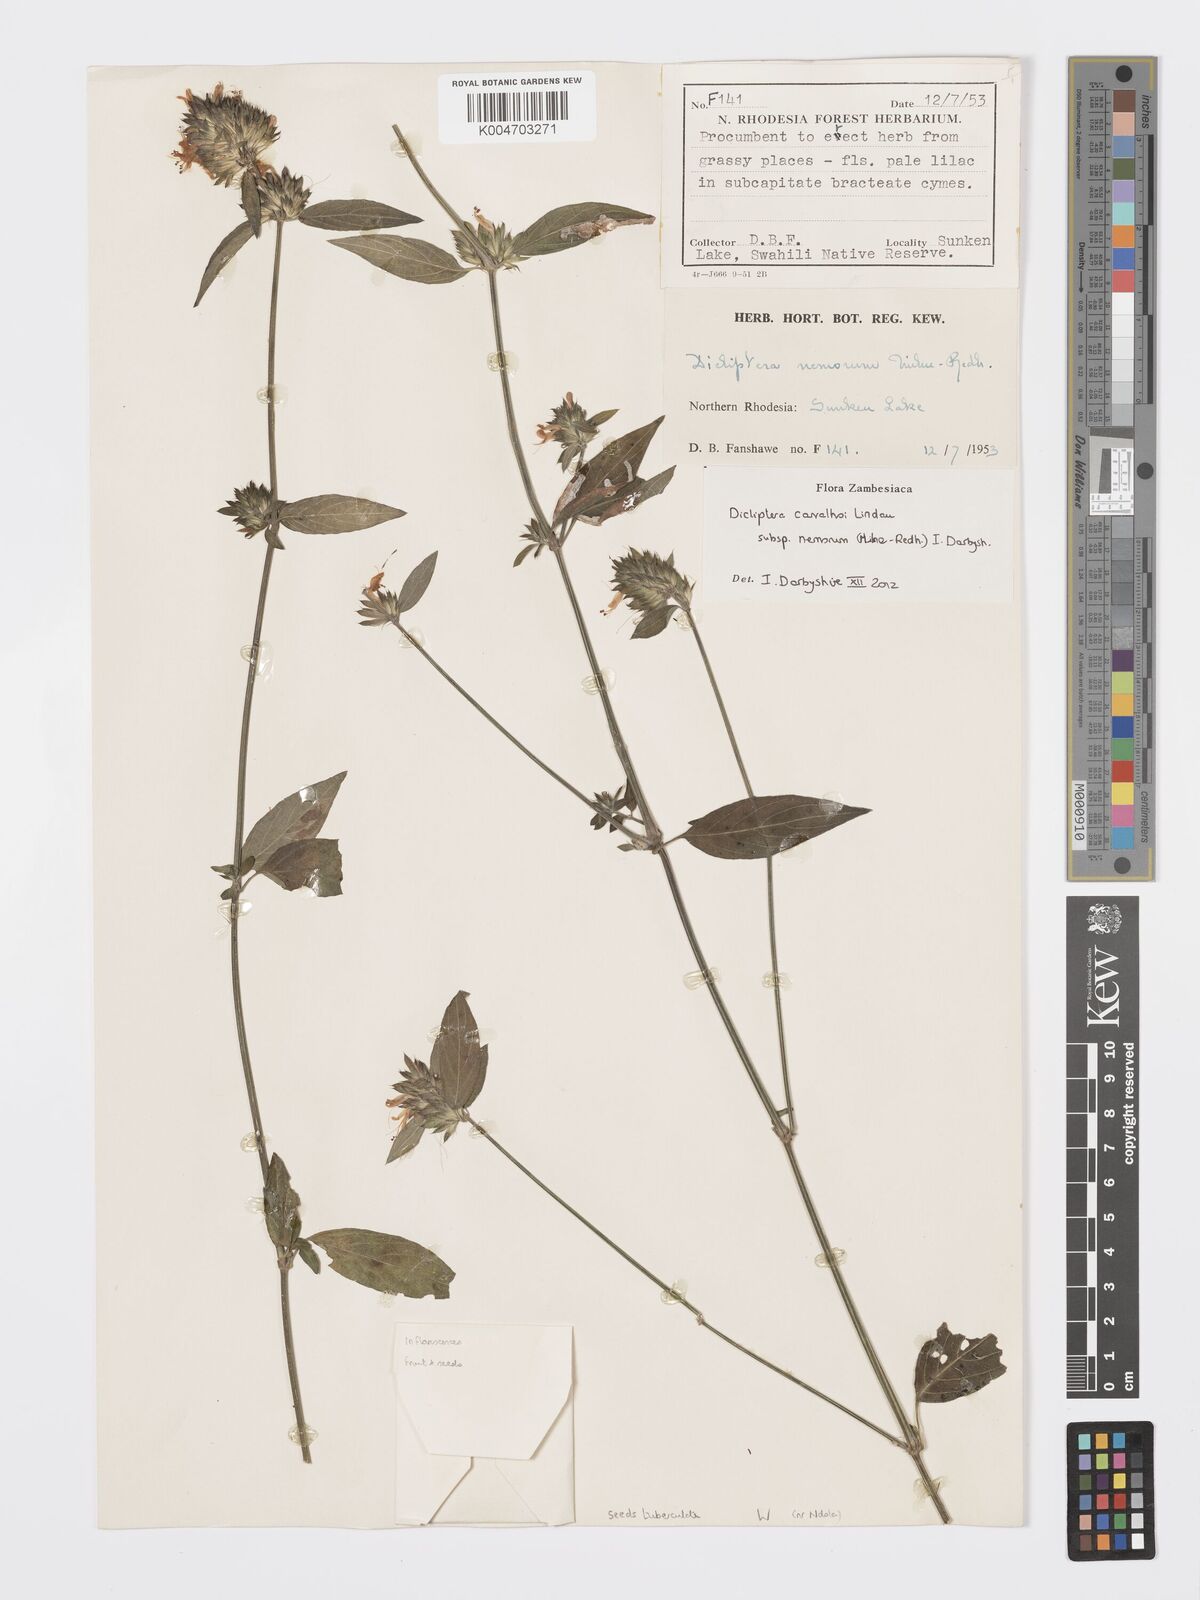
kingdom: Plantae
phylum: Tracheophyta
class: Magnoliopsida
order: Lamiales
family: Acanthaceae
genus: Dicliptera
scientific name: Dicliptera carvalhoi
